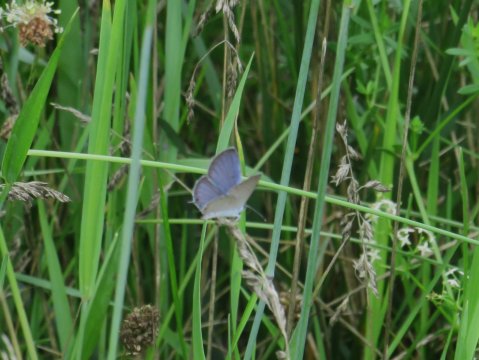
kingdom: Animalia
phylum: Arthropoda
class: Insecta
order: Lepidoptera
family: Lycaenidae
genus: Elkalyce
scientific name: Elkalyce comyntas
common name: Eastern Tailed-Blue
